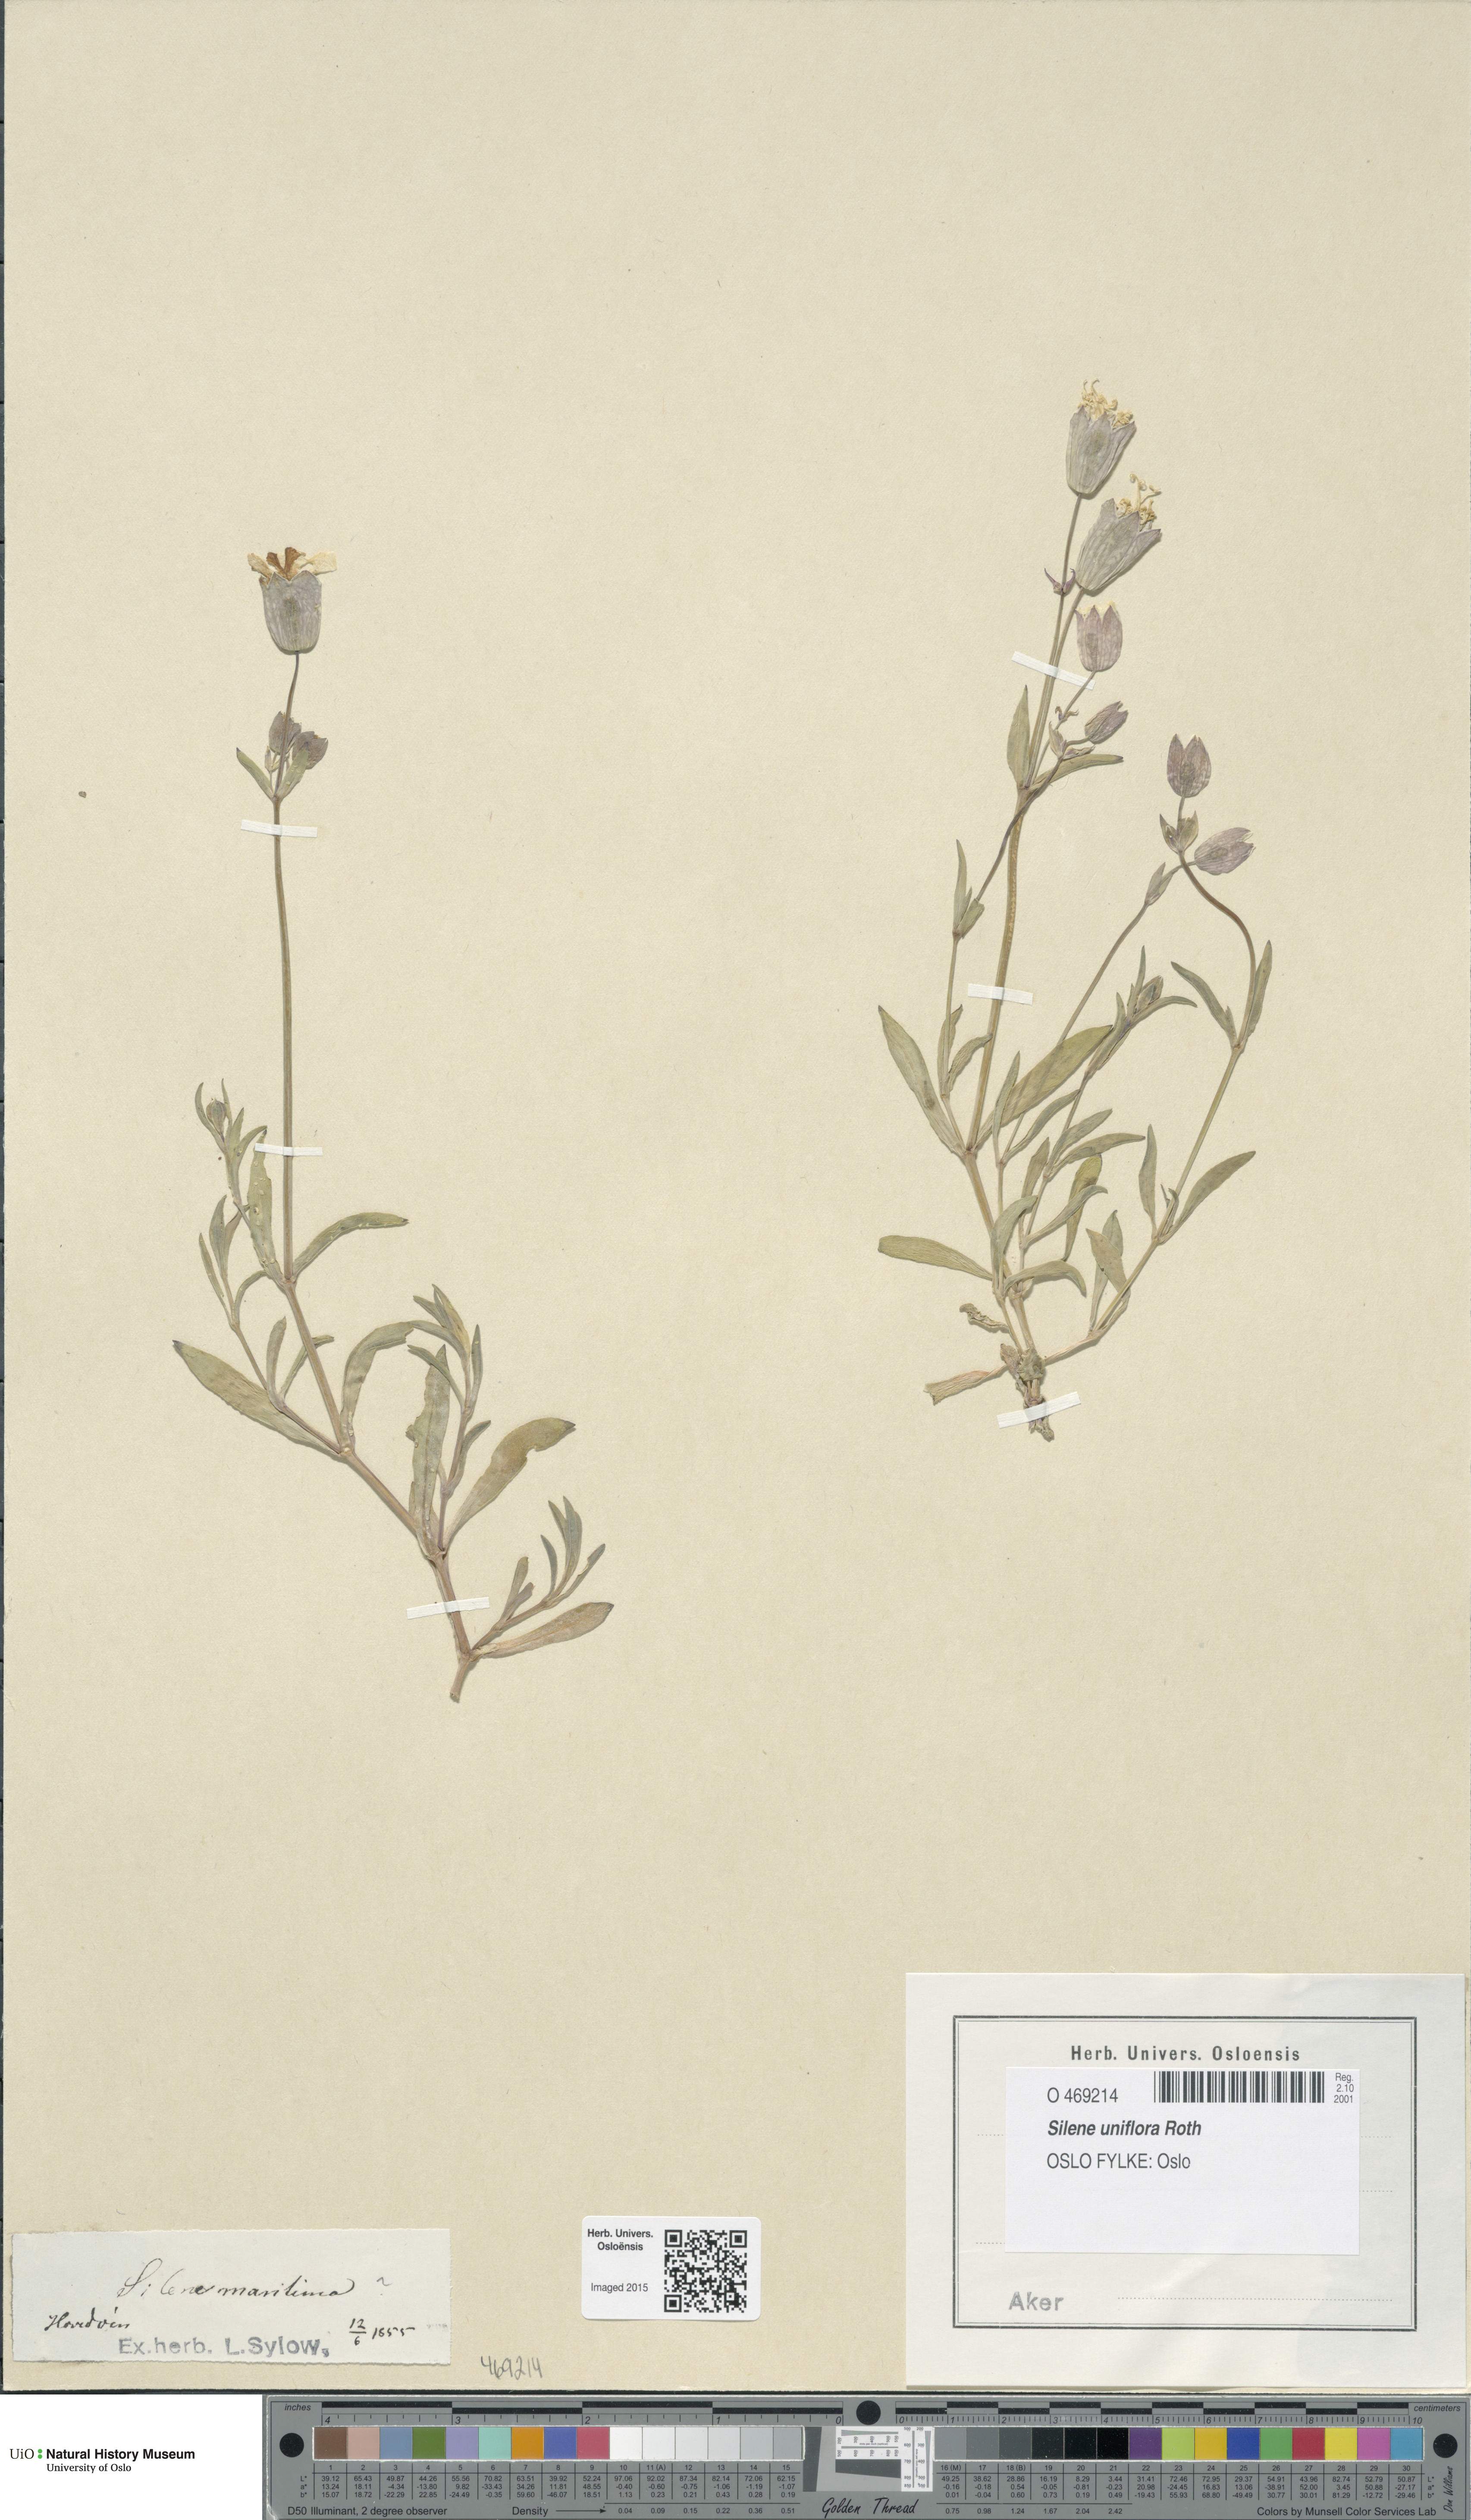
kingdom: Plantae
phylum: Tracheophyta
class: Magnoliopsida
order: Caryophyllales
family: Caryophyllaceae
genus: Silene
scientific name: Silene uniflora
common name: Sea campion
